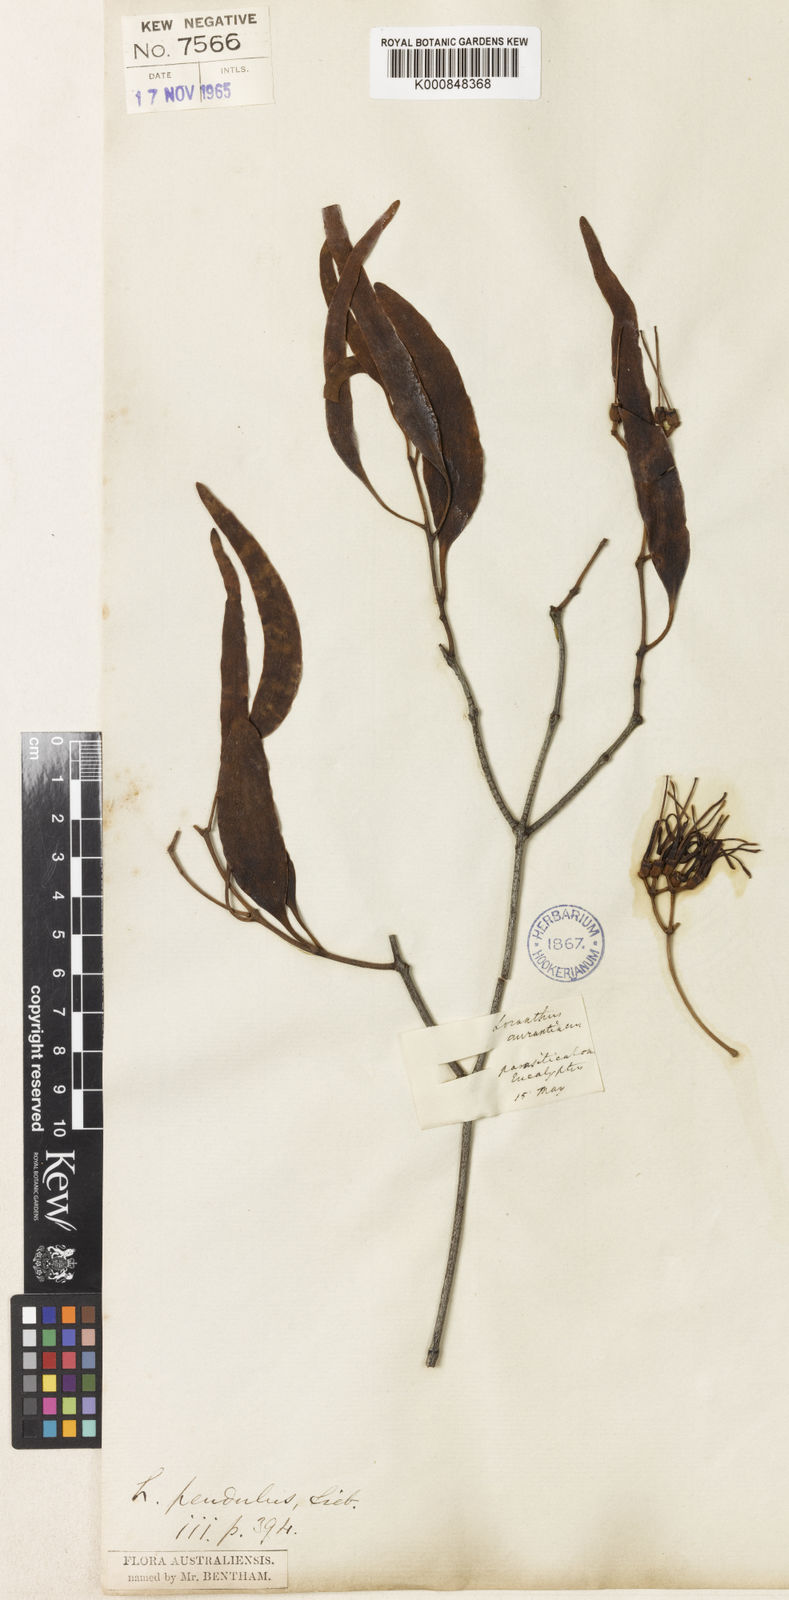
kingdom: Plantae
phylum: Tracheophyta
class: Magnoliopsida
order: Santalales
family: Loranthaceae
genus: Amyema
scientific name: Amyema miquelii
